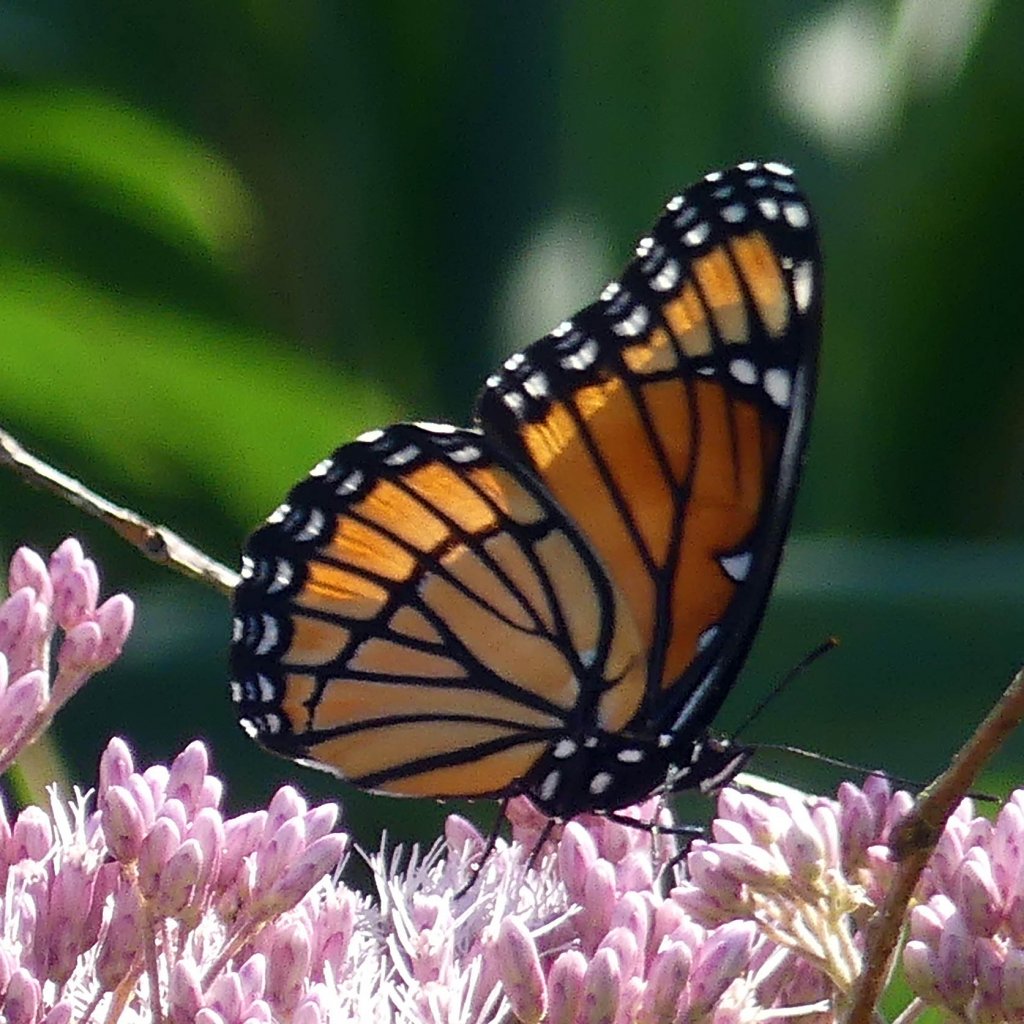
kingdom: Animalia
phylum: Arthropoda
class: Insecta
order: Lepidoptera
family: Nymphalidae
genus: Limenitis
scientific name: Limenitis archippus
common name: Viceroy
